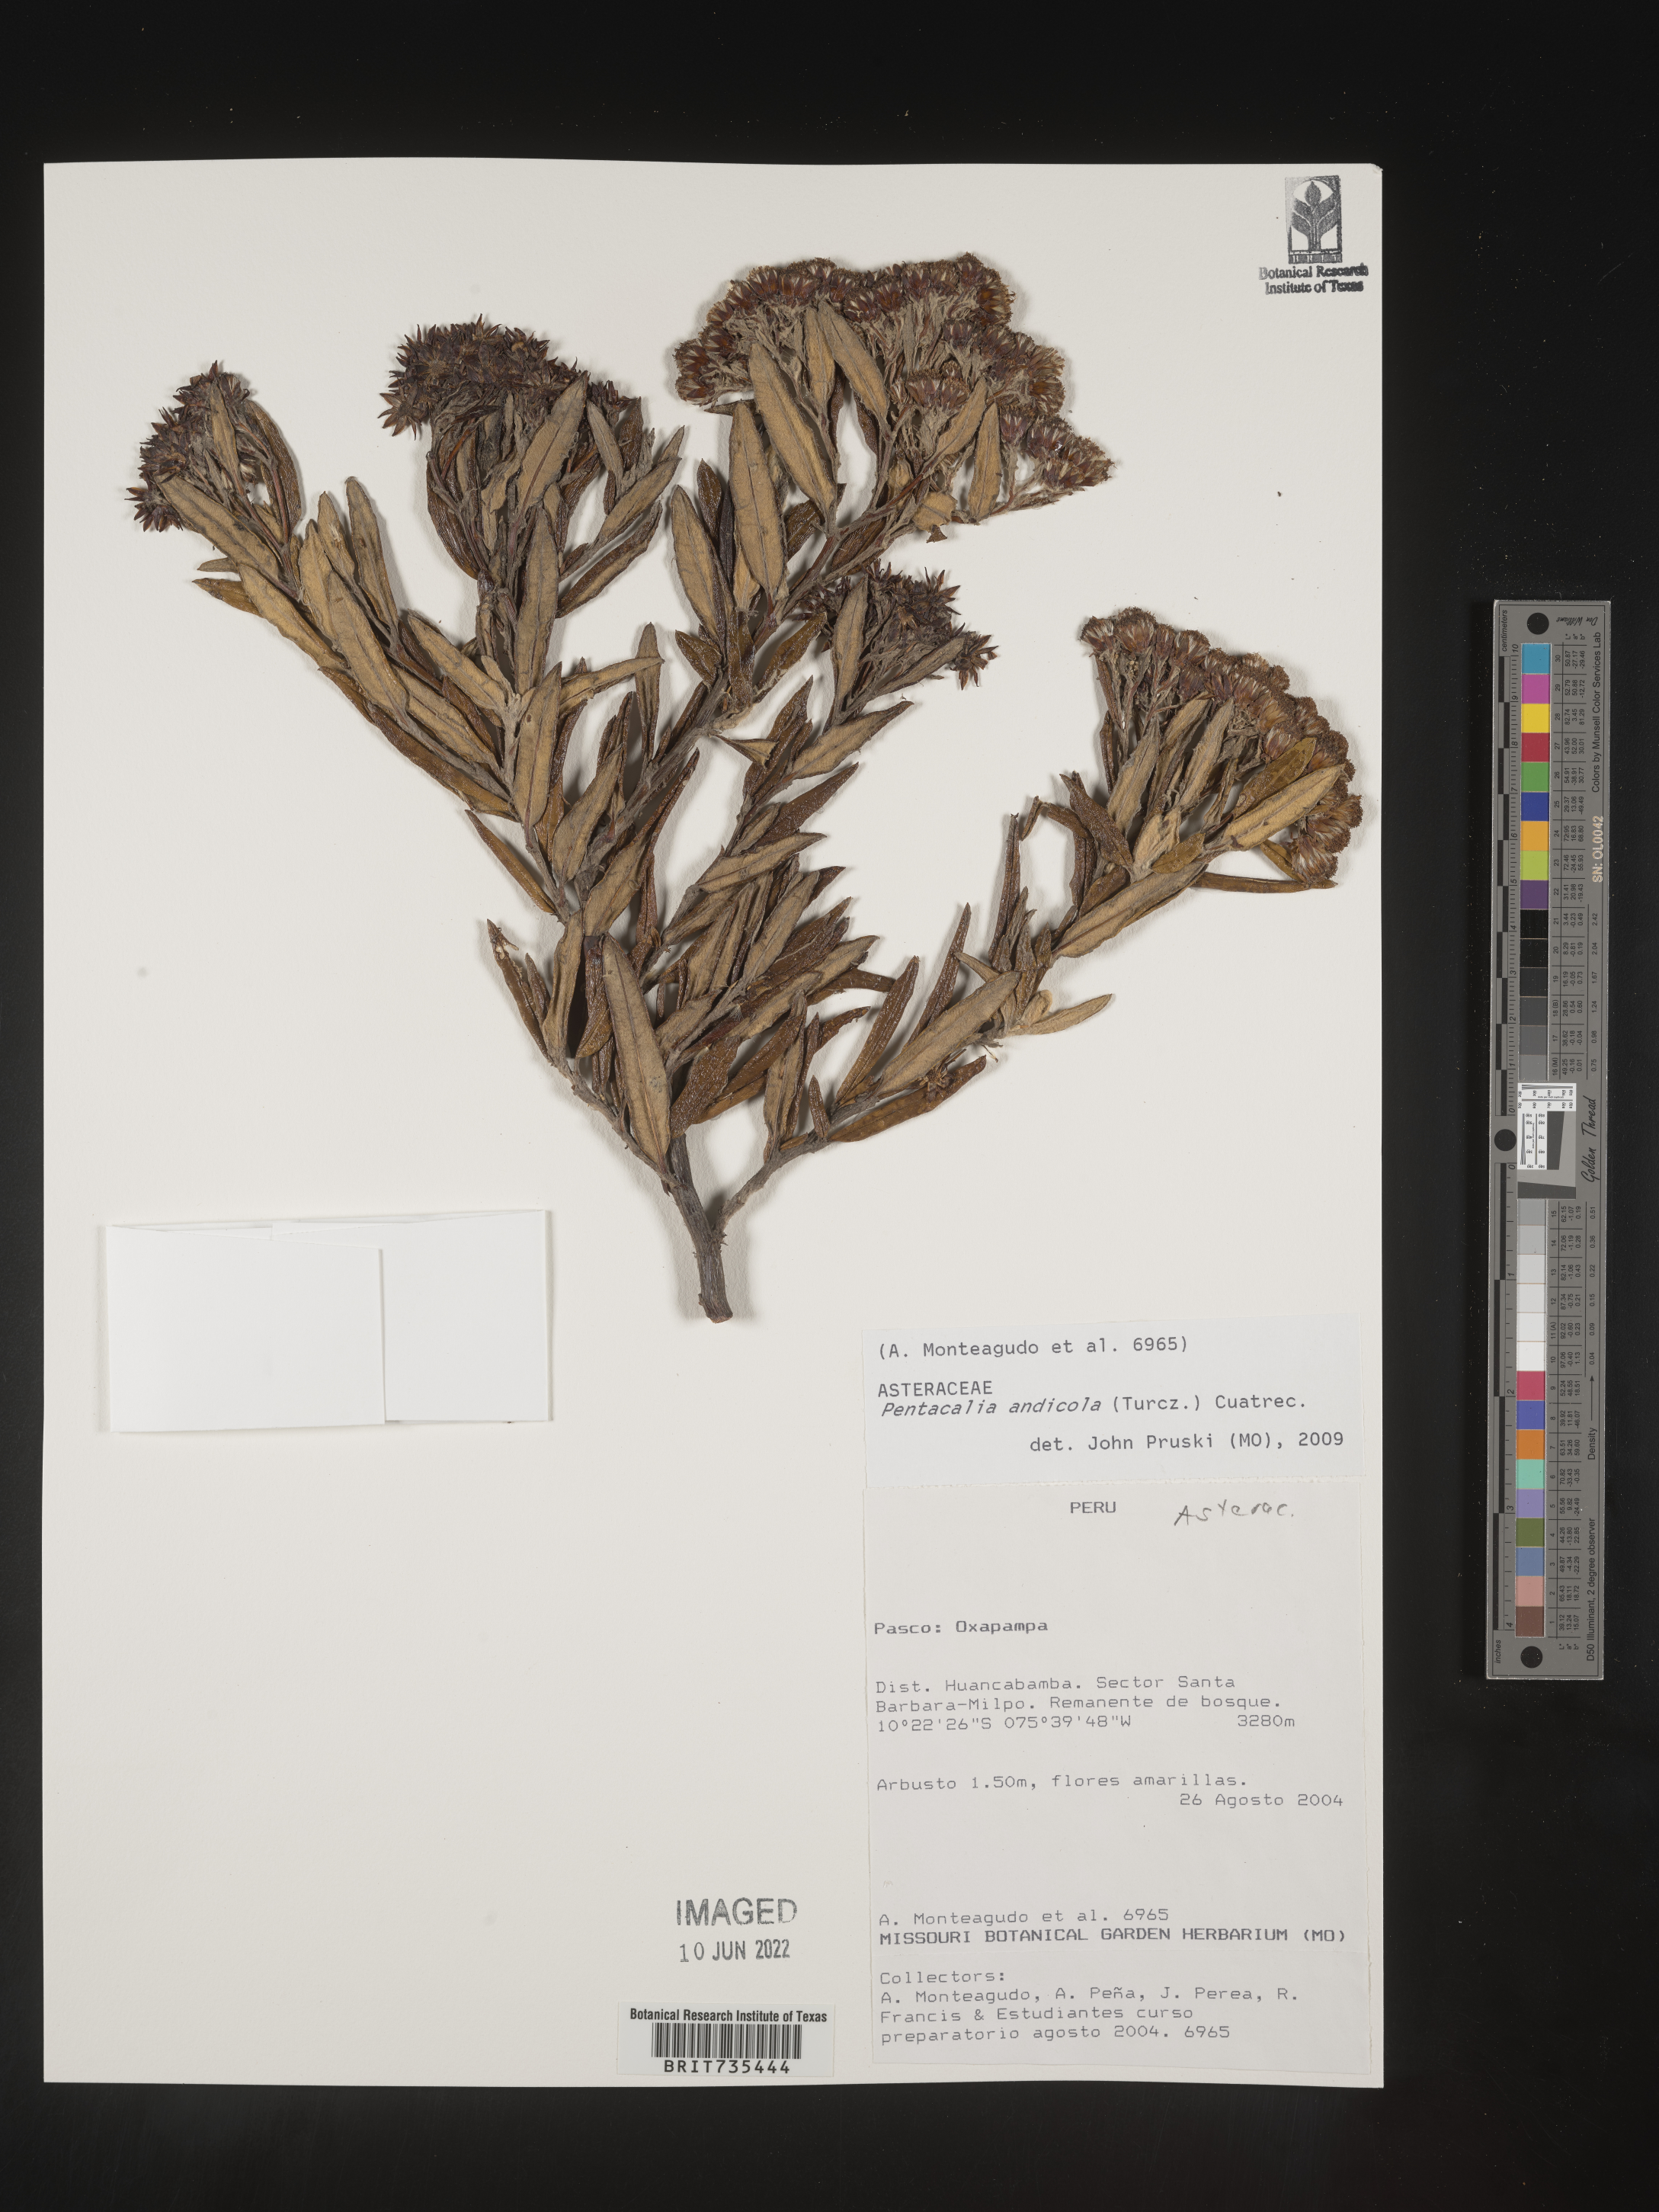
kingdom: Plantae
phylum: Tracheophyta
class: Magnoliopsida
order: Asterales
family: Asteraceae
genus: Pentacalia
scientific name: Pentacalia
